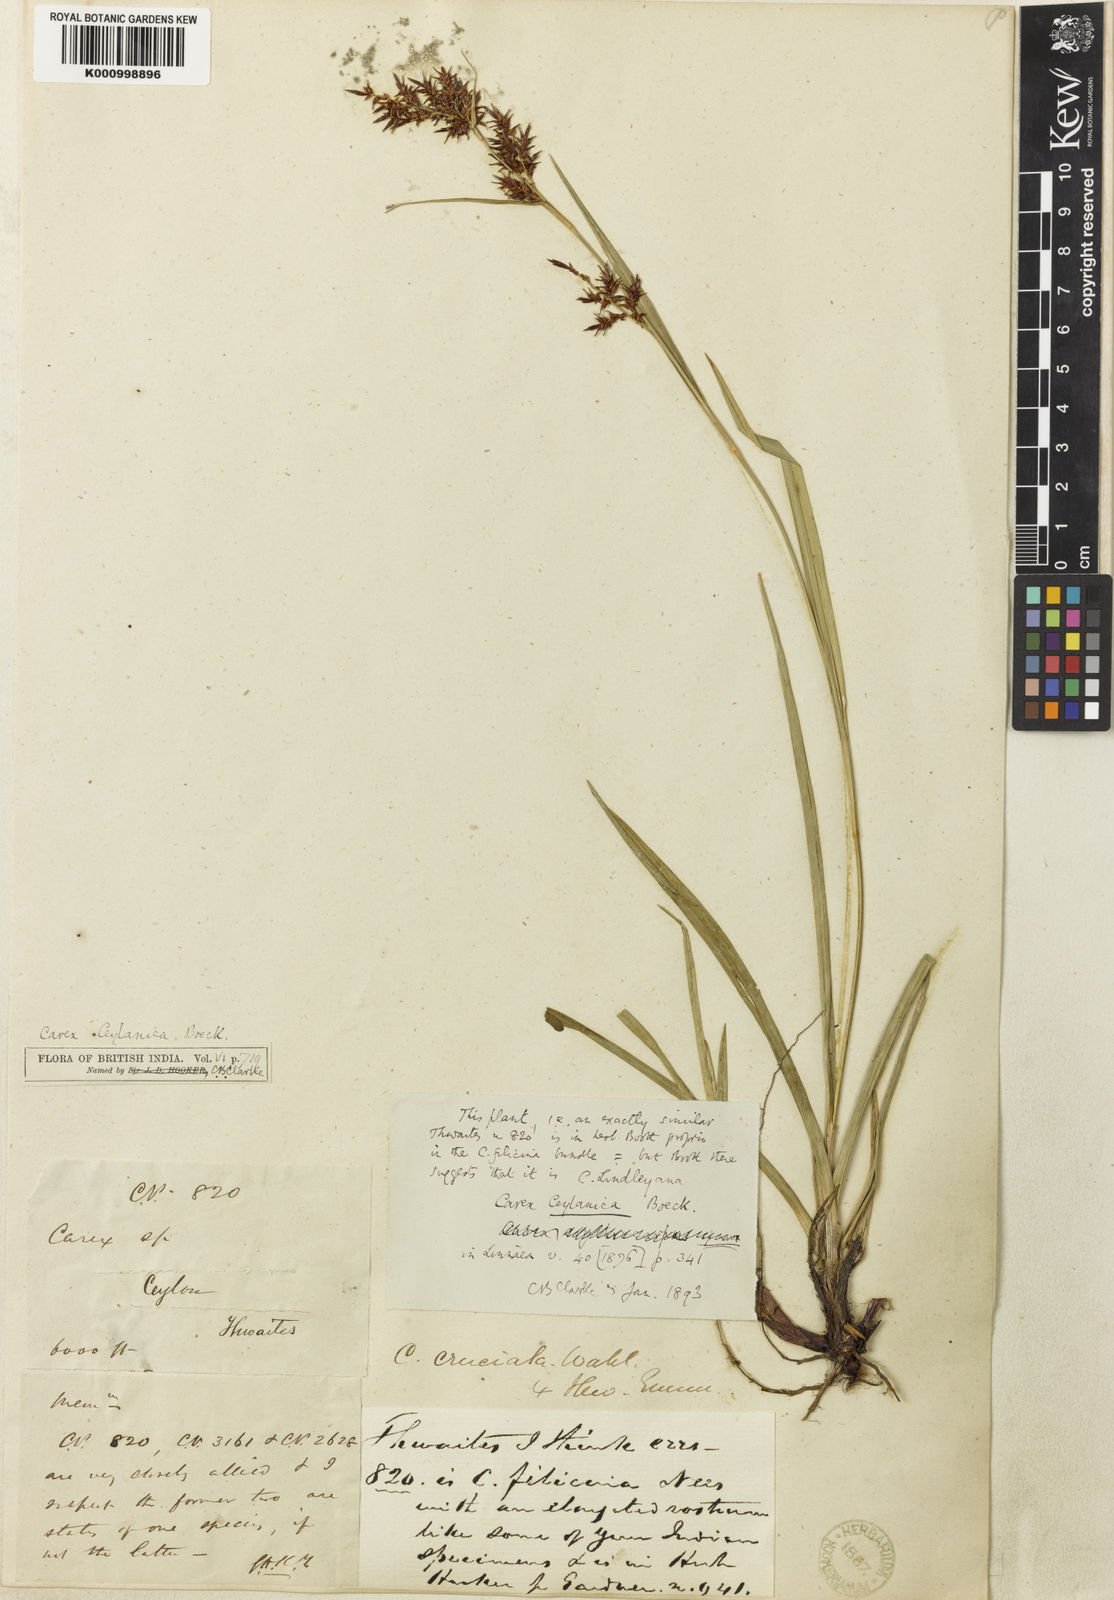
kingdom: Plantae
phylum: Tracheophyta
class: Liliopsida
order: Poales
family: Cyperaceae
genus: Carex
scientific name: Carex ceylanica
